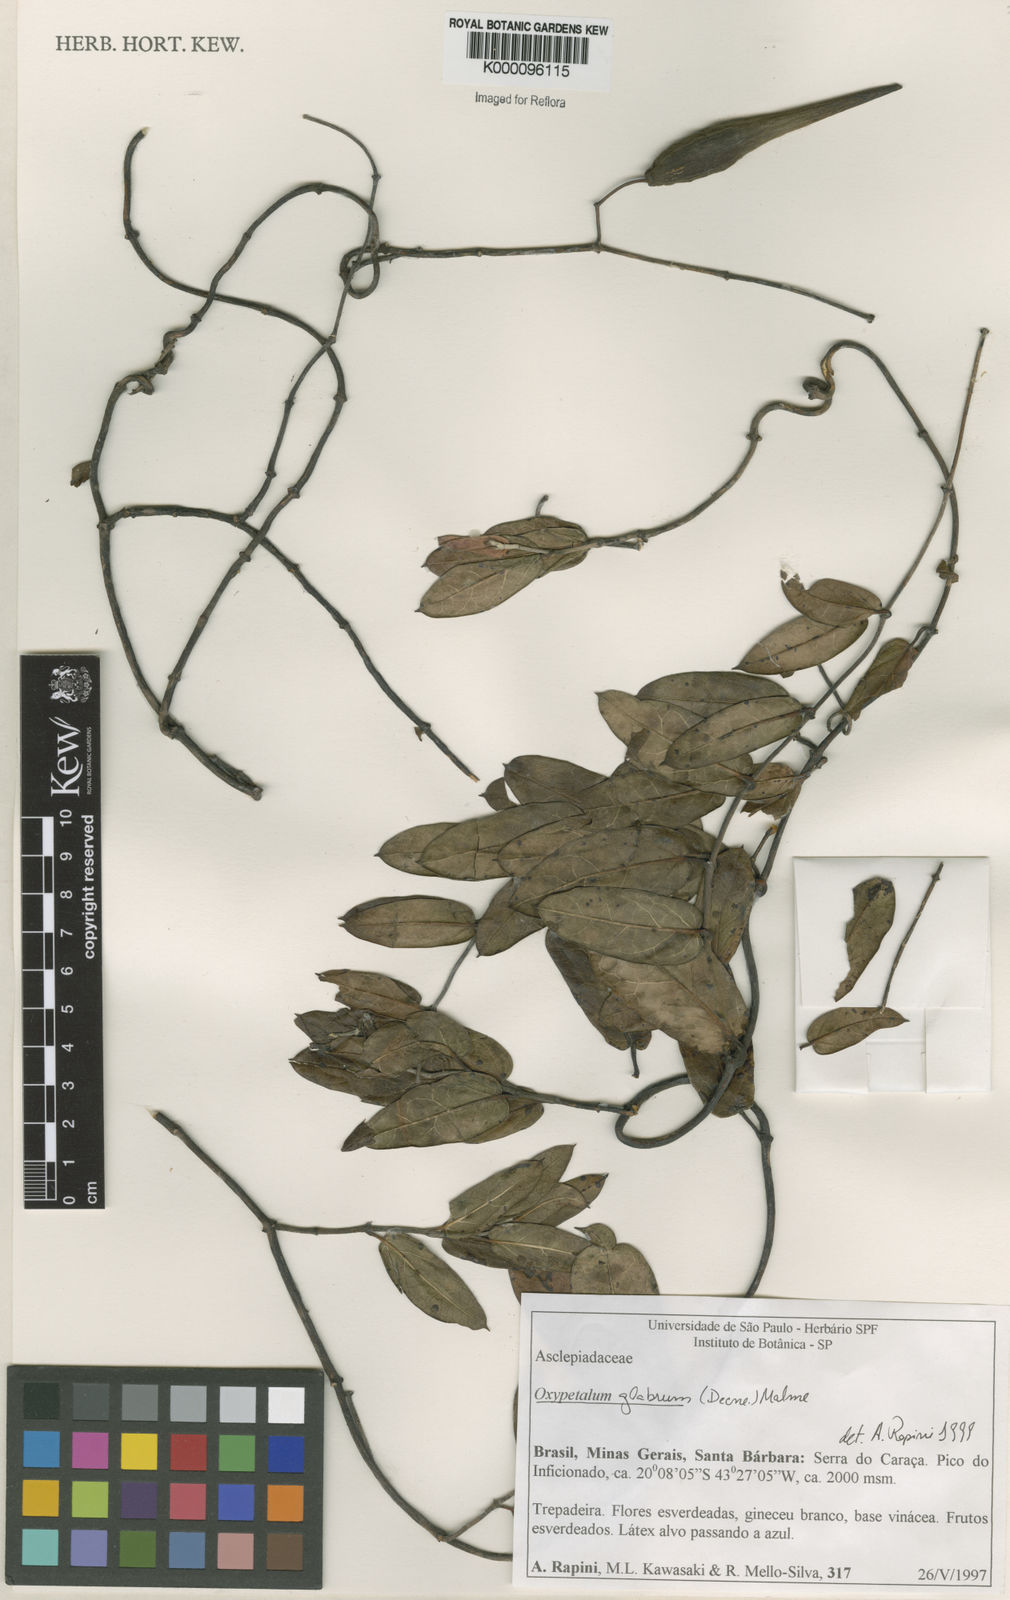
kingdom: Plantae
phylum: Tracheophyta
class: Magnoliopsida
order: Gentianales
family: Apocynaceae
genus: Oxypetalum
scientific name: Oxypetalum insigne
